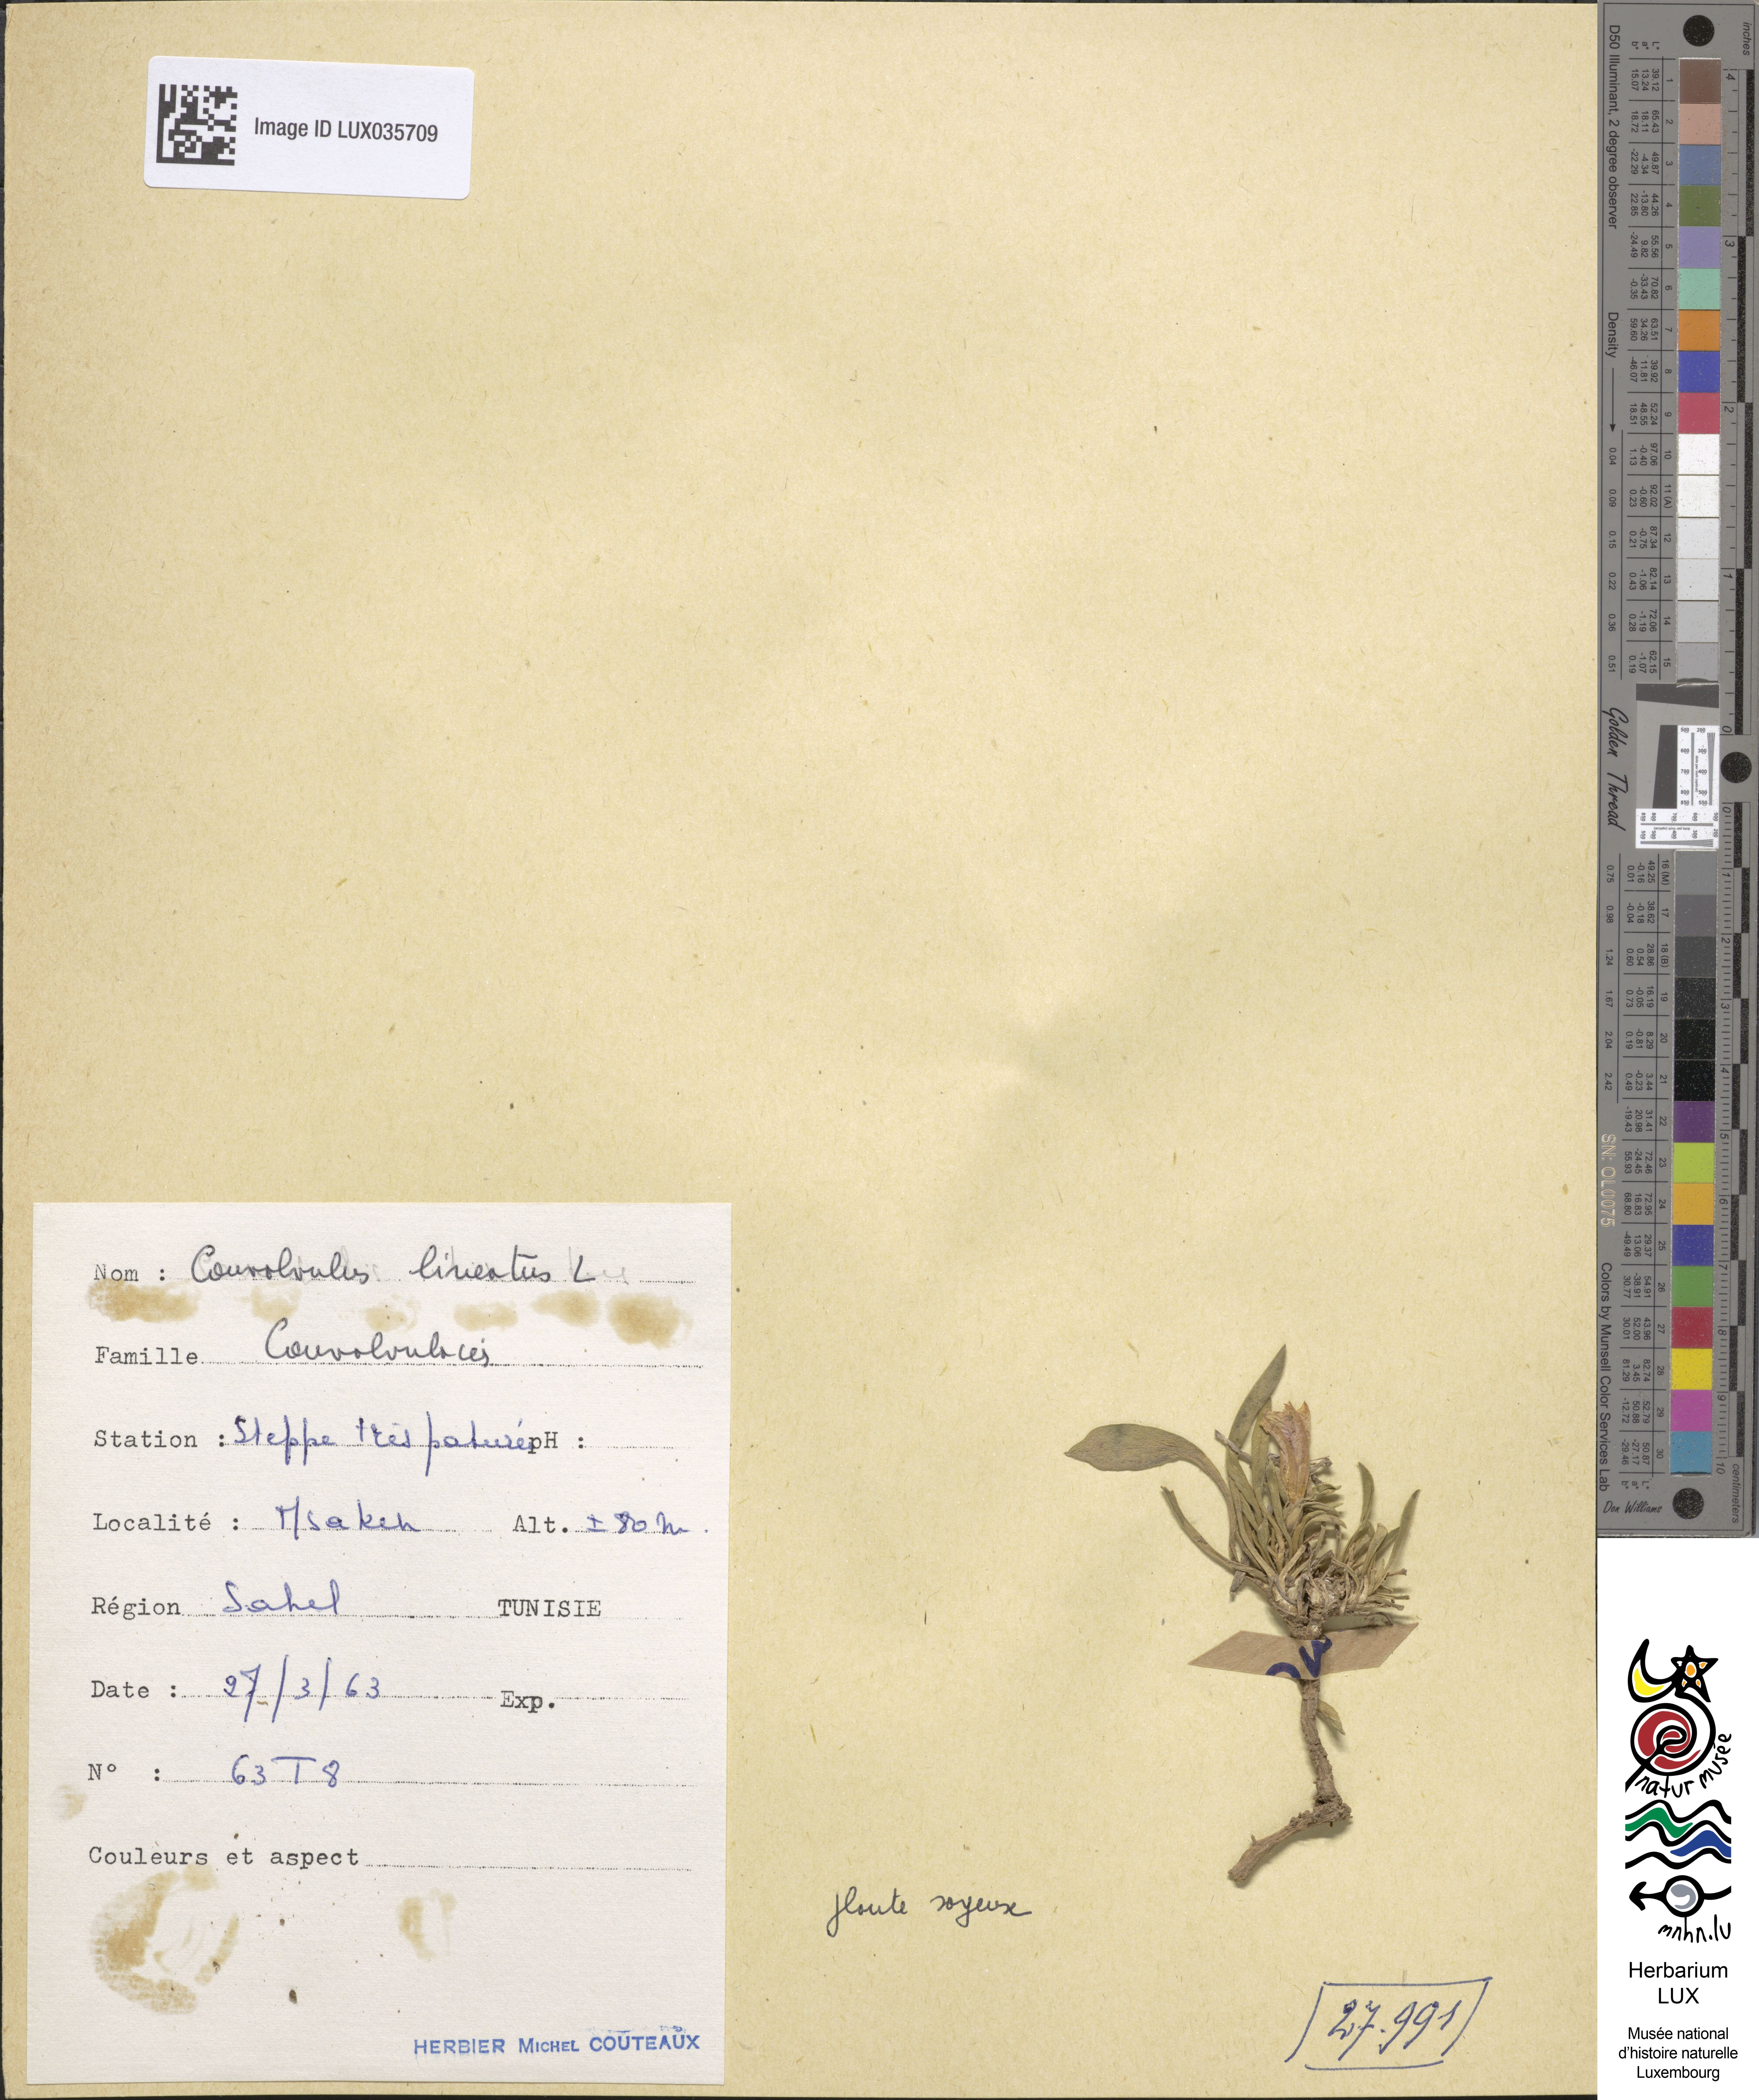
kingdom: Plantae
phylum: Tracheophyta
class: Magnoliopsida
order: Solanales
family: Convolvulaceae
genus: Convolvulus
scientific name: Convolvulus lineatus
